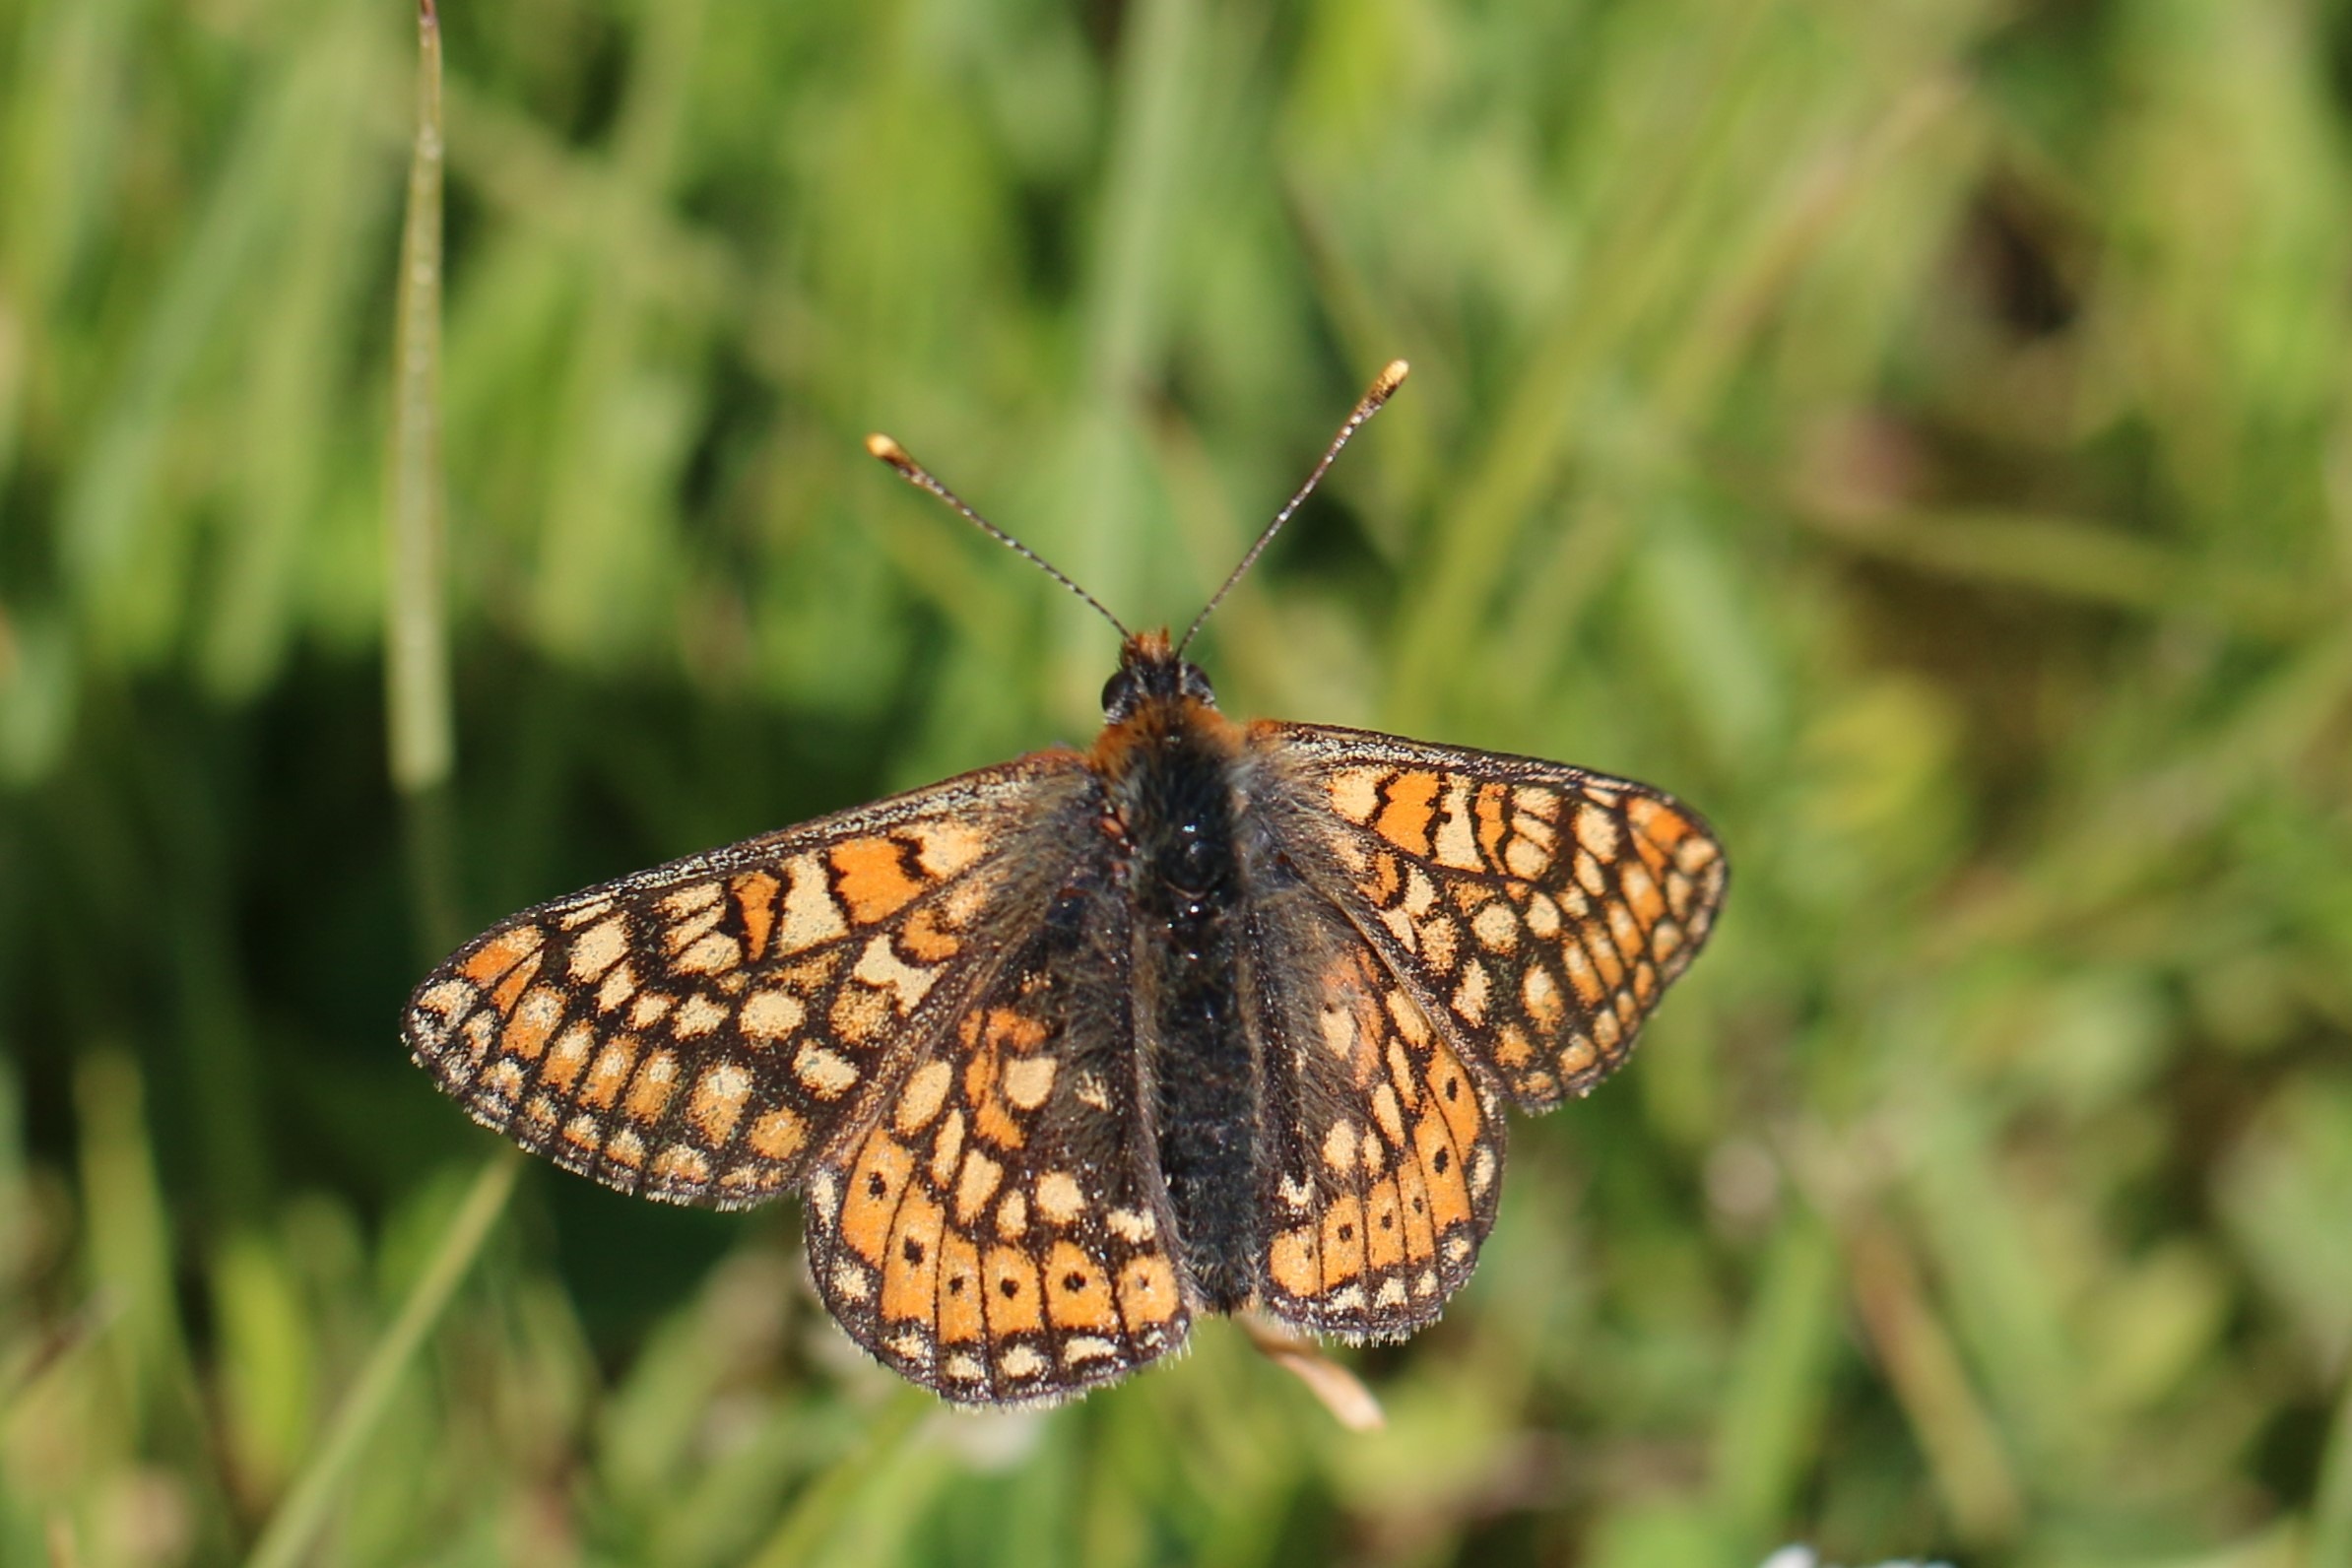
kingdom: Animalia
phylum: Arthropoda
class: Insecta
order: Lepidoptera
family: Nymphalidae
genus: Euphydryas
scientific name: Euphydryas aurinia
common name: Hedepletvinge
